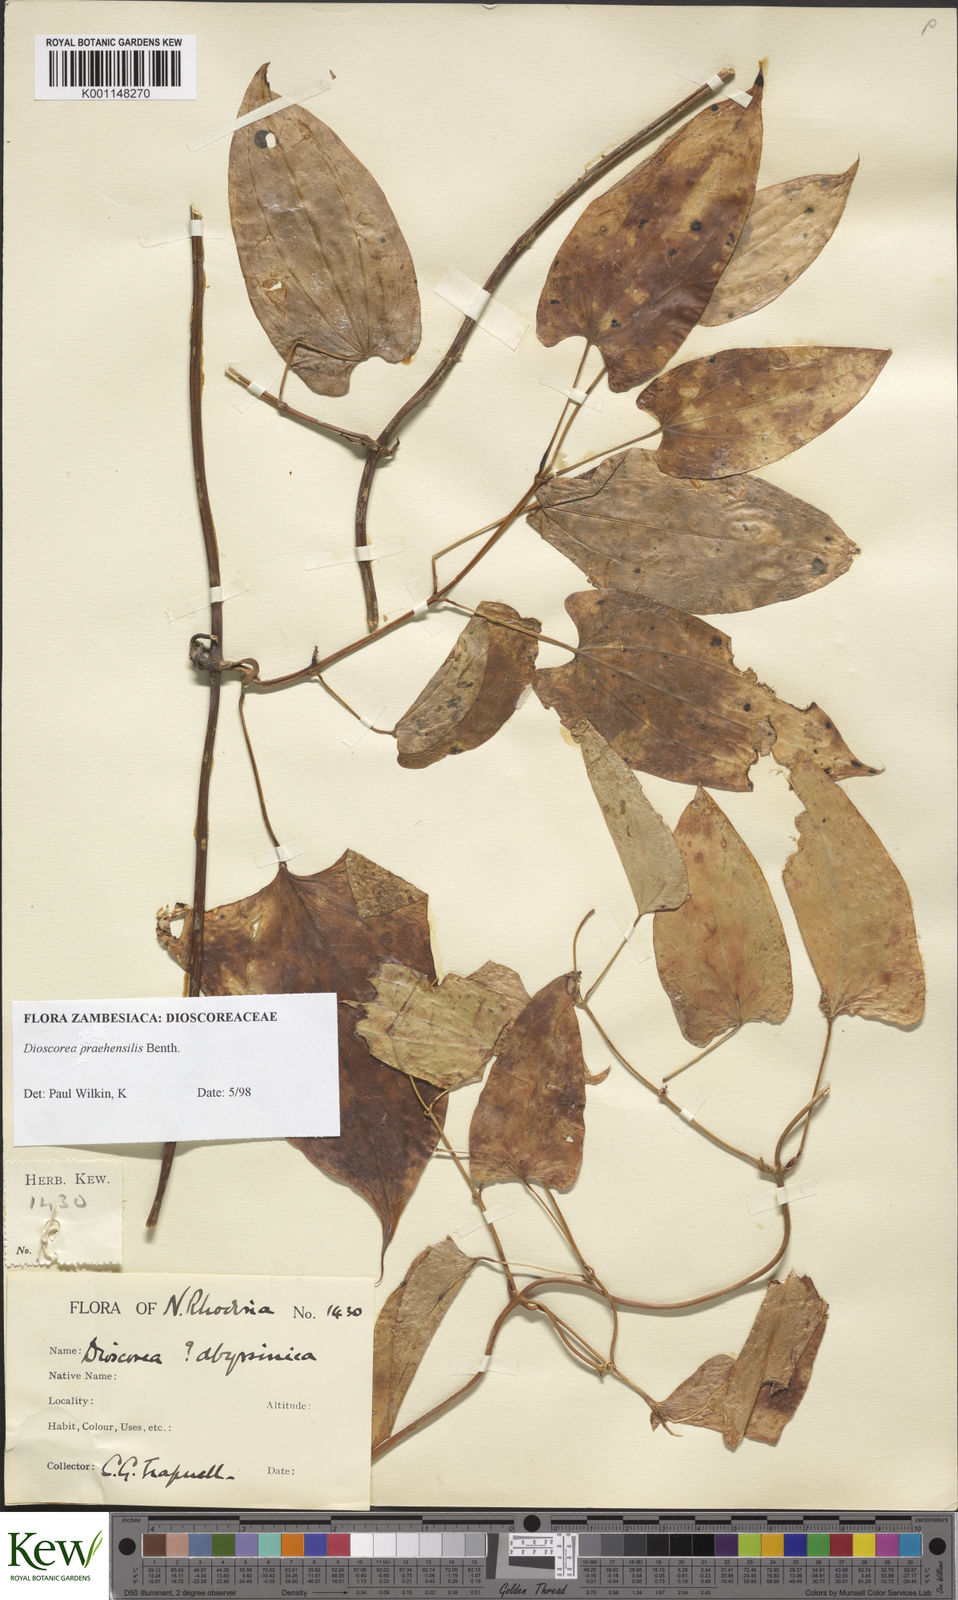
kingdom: Plantae
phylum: Tracheophyta
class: Liliopsida
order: Dioscoreales
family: Dioscoreaceae
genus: Dioscorea
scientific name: Dioscorea praehensilis
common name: Bush yam
